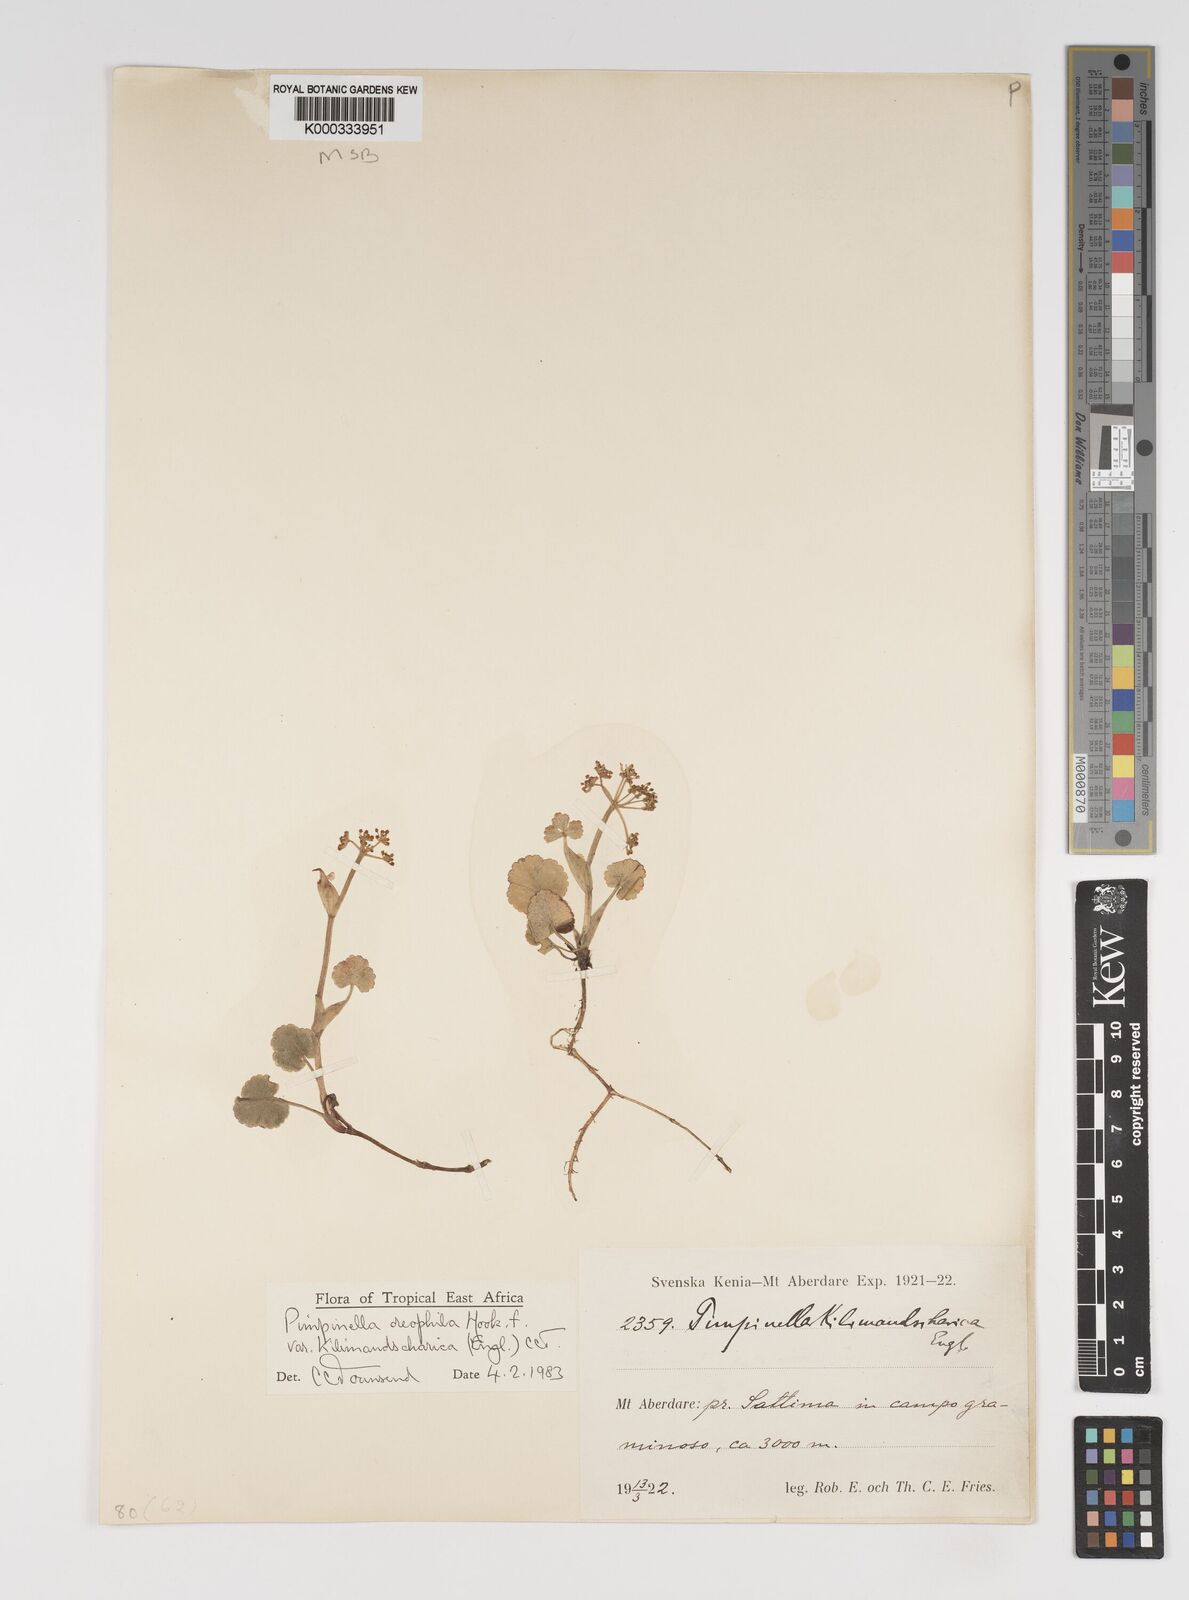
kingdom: Plantae
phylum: Tracheophyta
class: Magnoliopsida
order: Apiales
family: Apiaceae
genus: Pimpinella
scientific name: Pimpinella
